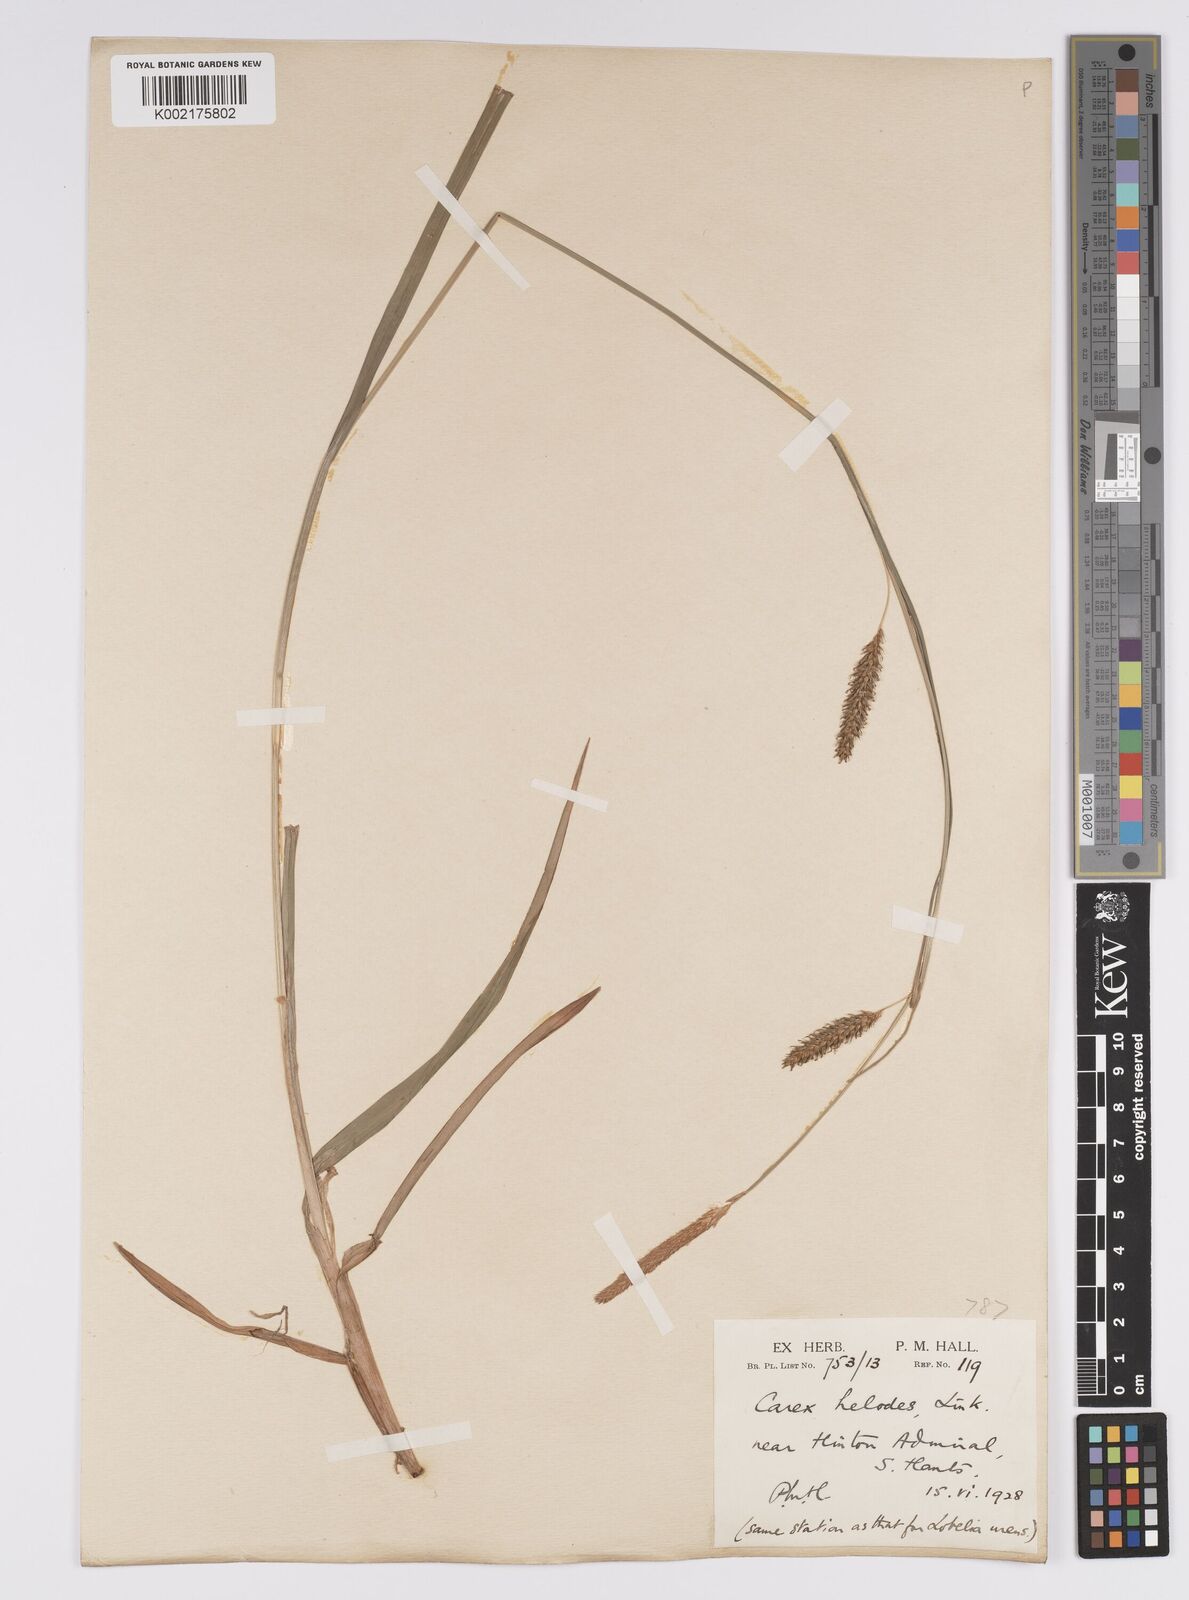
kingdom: Plantae
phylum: Tracheophyta
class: Liliopsida
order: Poales
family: Cyperaceae
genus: Carex
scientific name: Carex laevigata
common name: Smooth-stalked sedge
